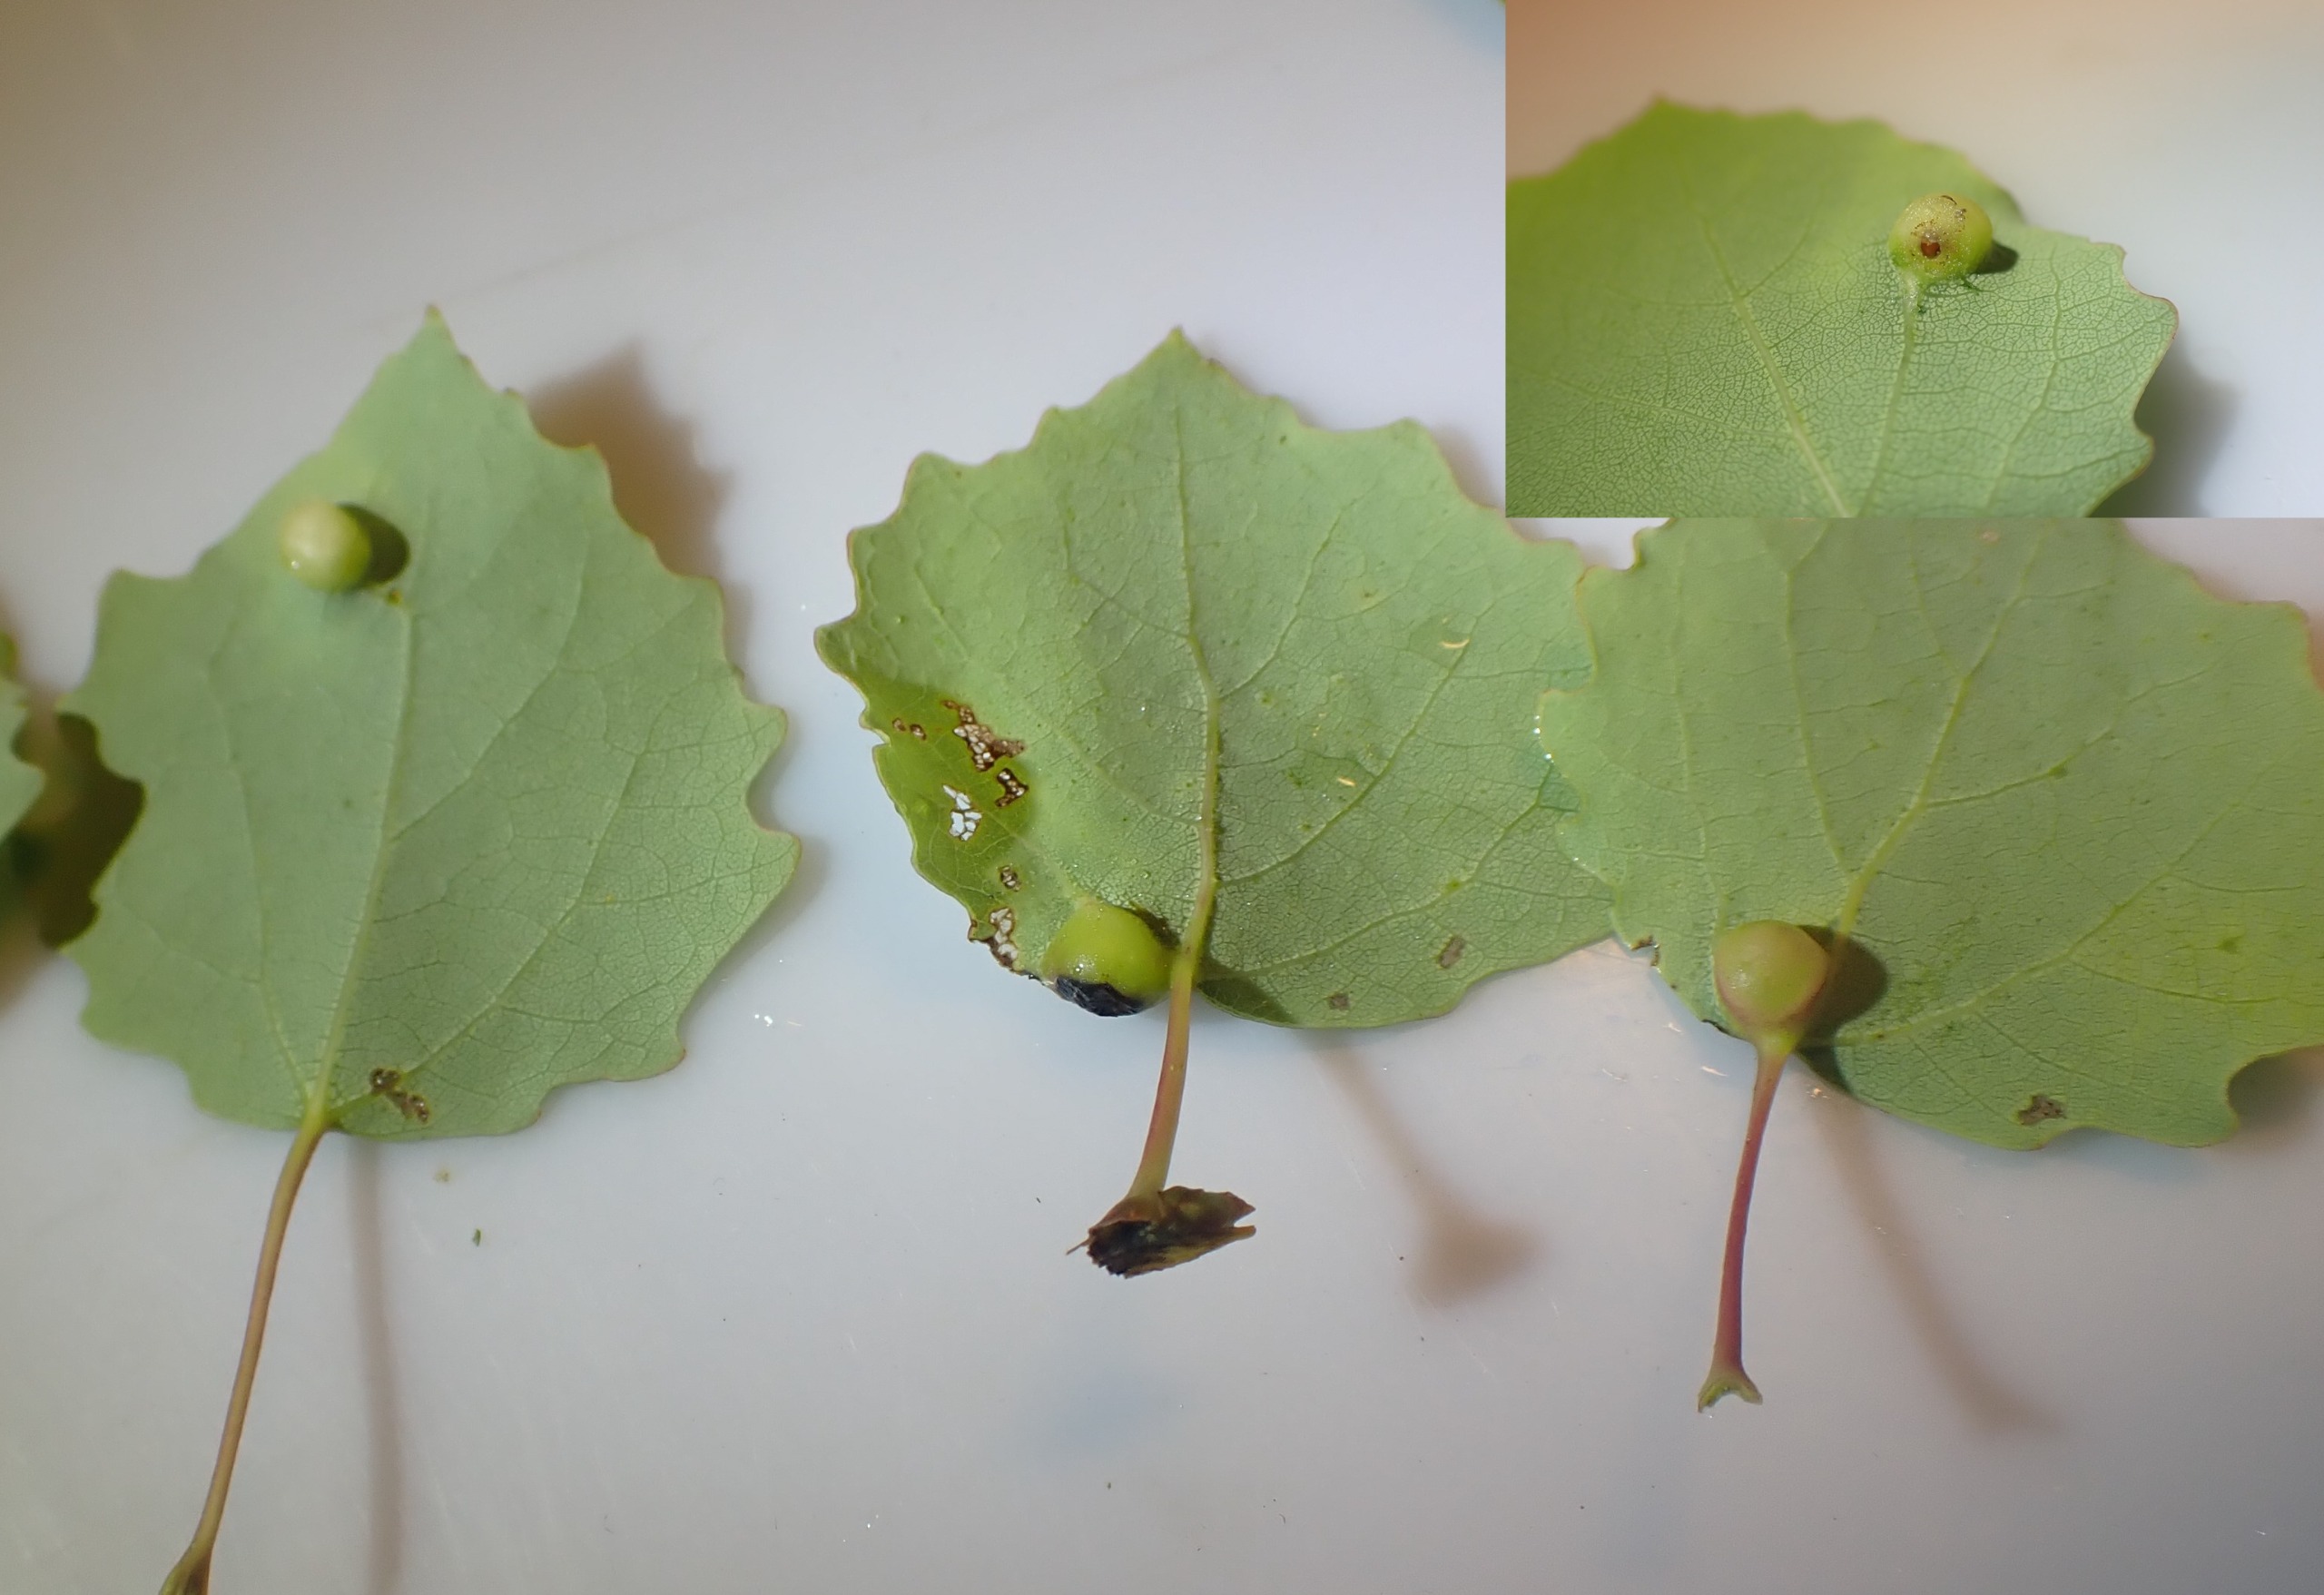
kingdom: Animalia
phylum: Arthropoda
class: Insecta
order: Diptera
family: Cecidomyiidae
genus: Harmandiola
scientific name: Harmandiola cavernosa
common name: Aspepunggalmyg
